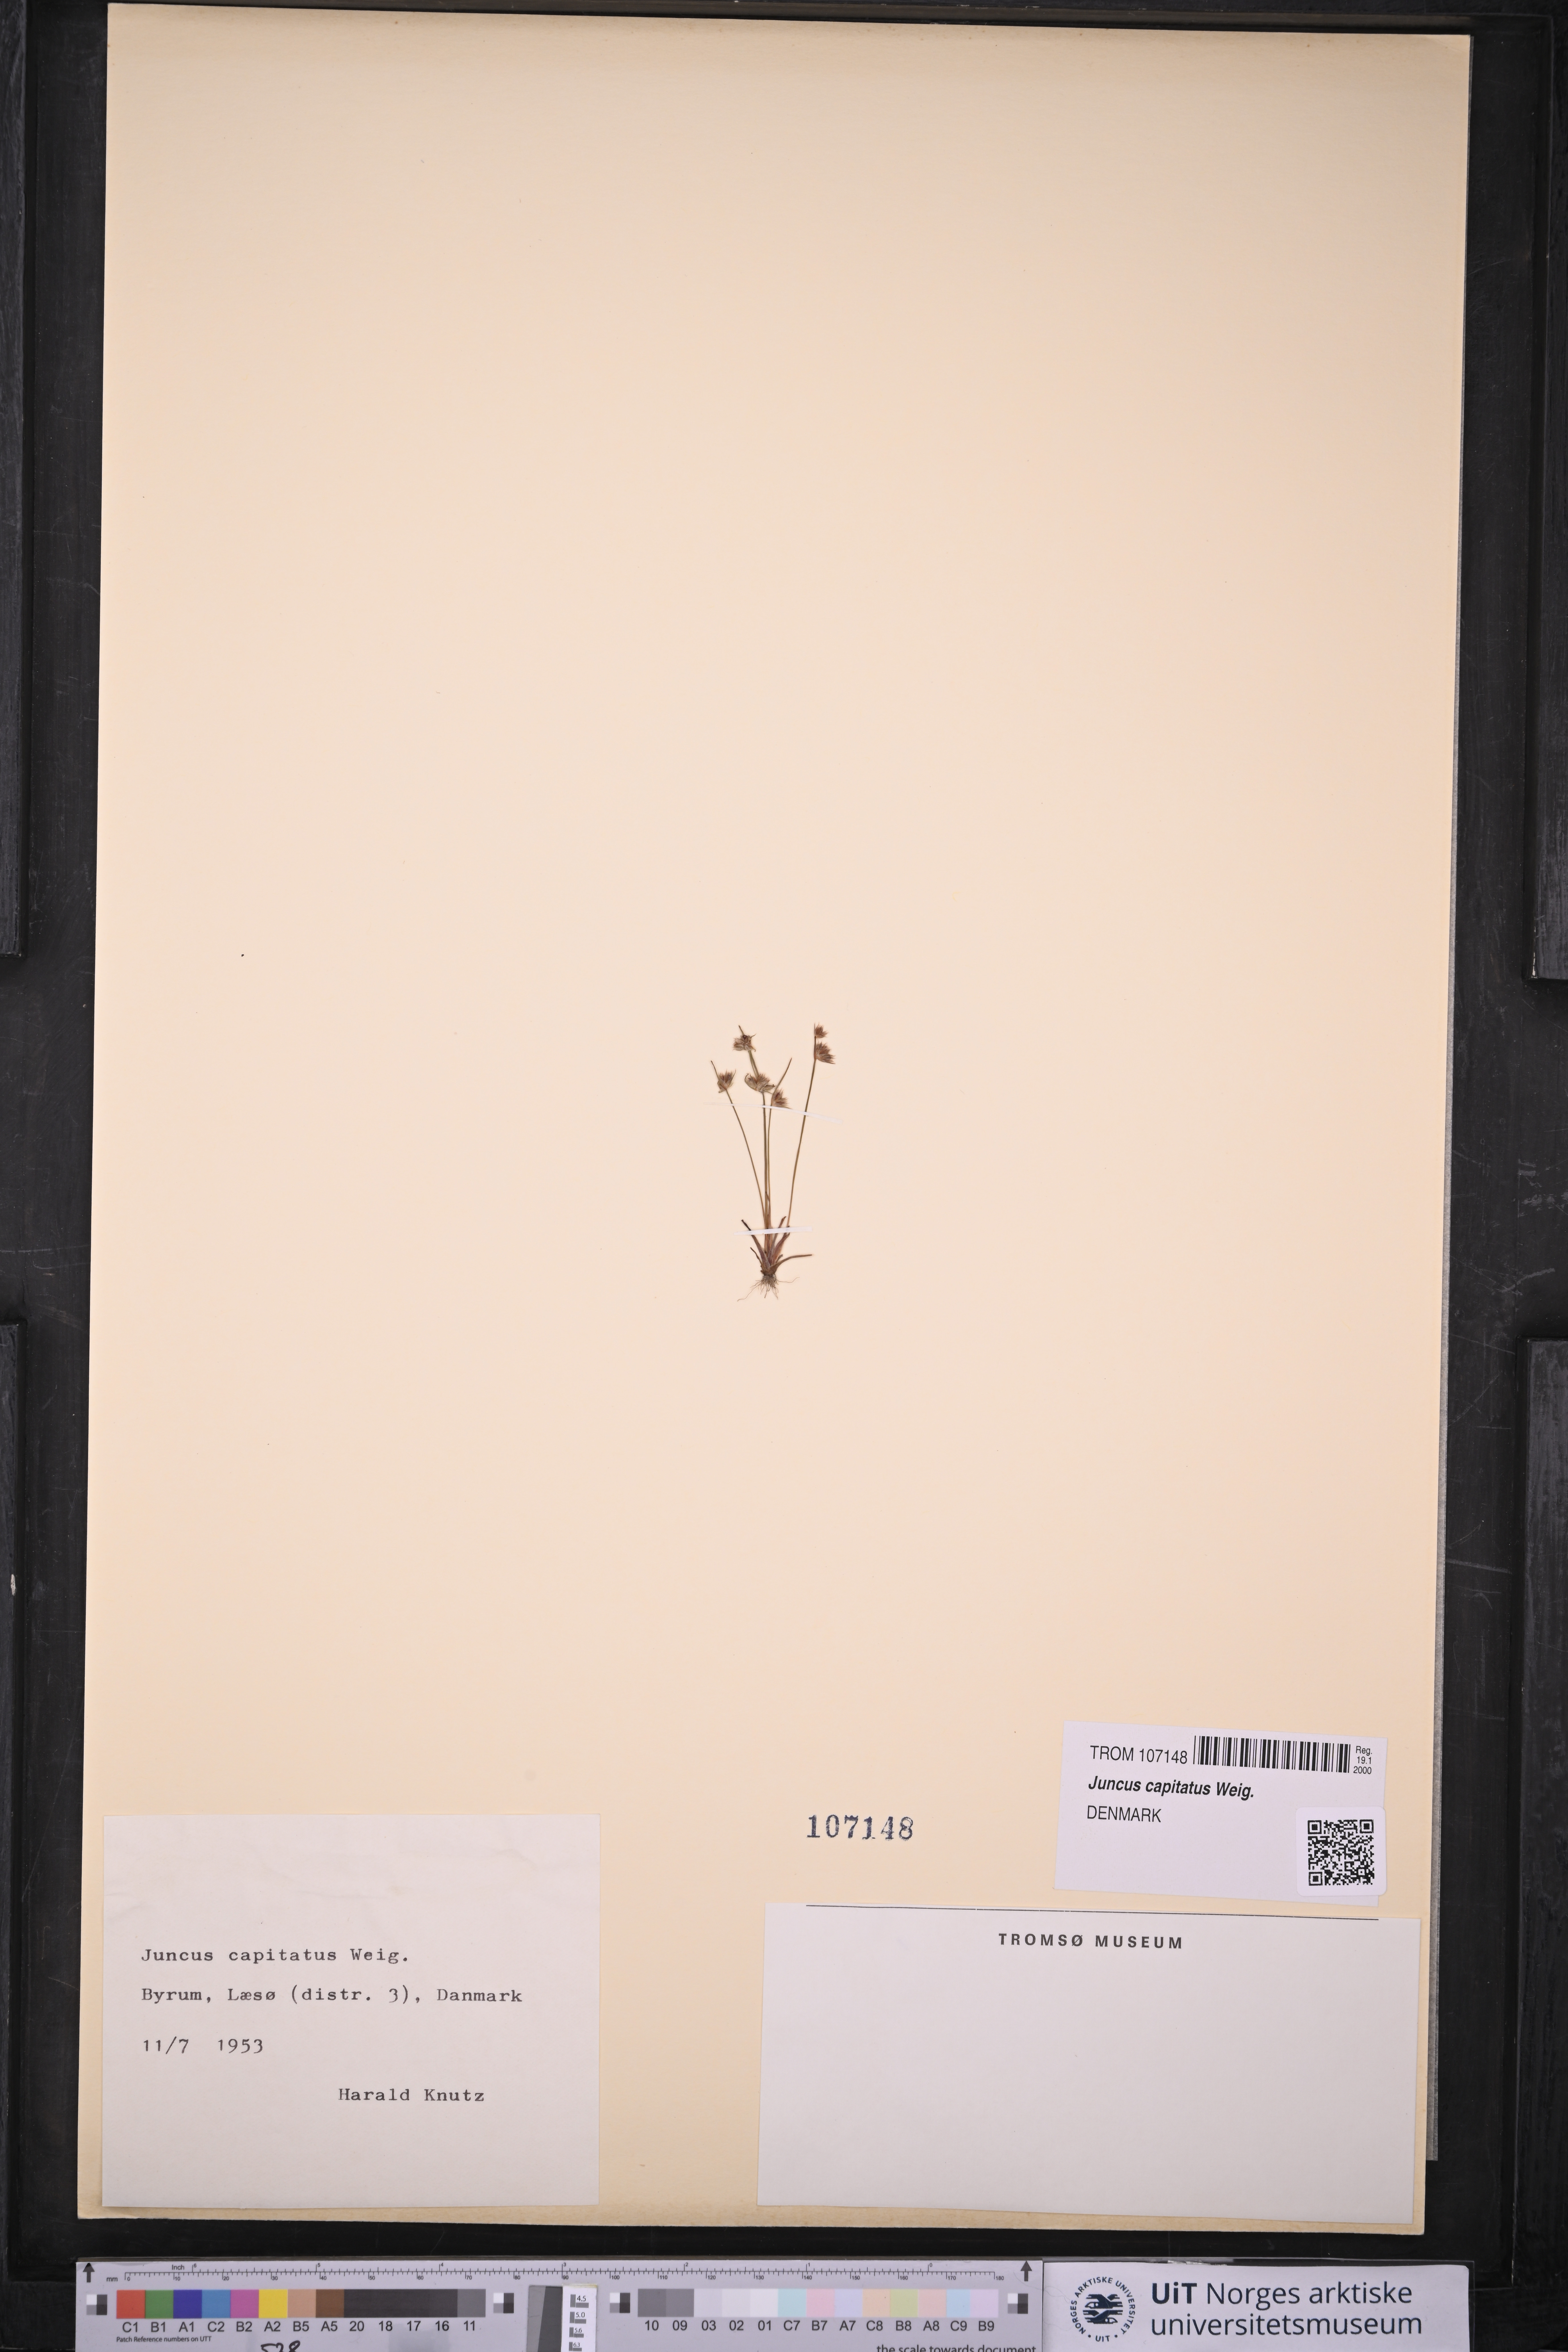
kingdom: Plantae
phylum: Tracheophyta
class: Liliopsida
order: Poales
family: Juncaceae
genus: Juncus
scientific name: Juncus capitatus
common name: Dwarf rush
